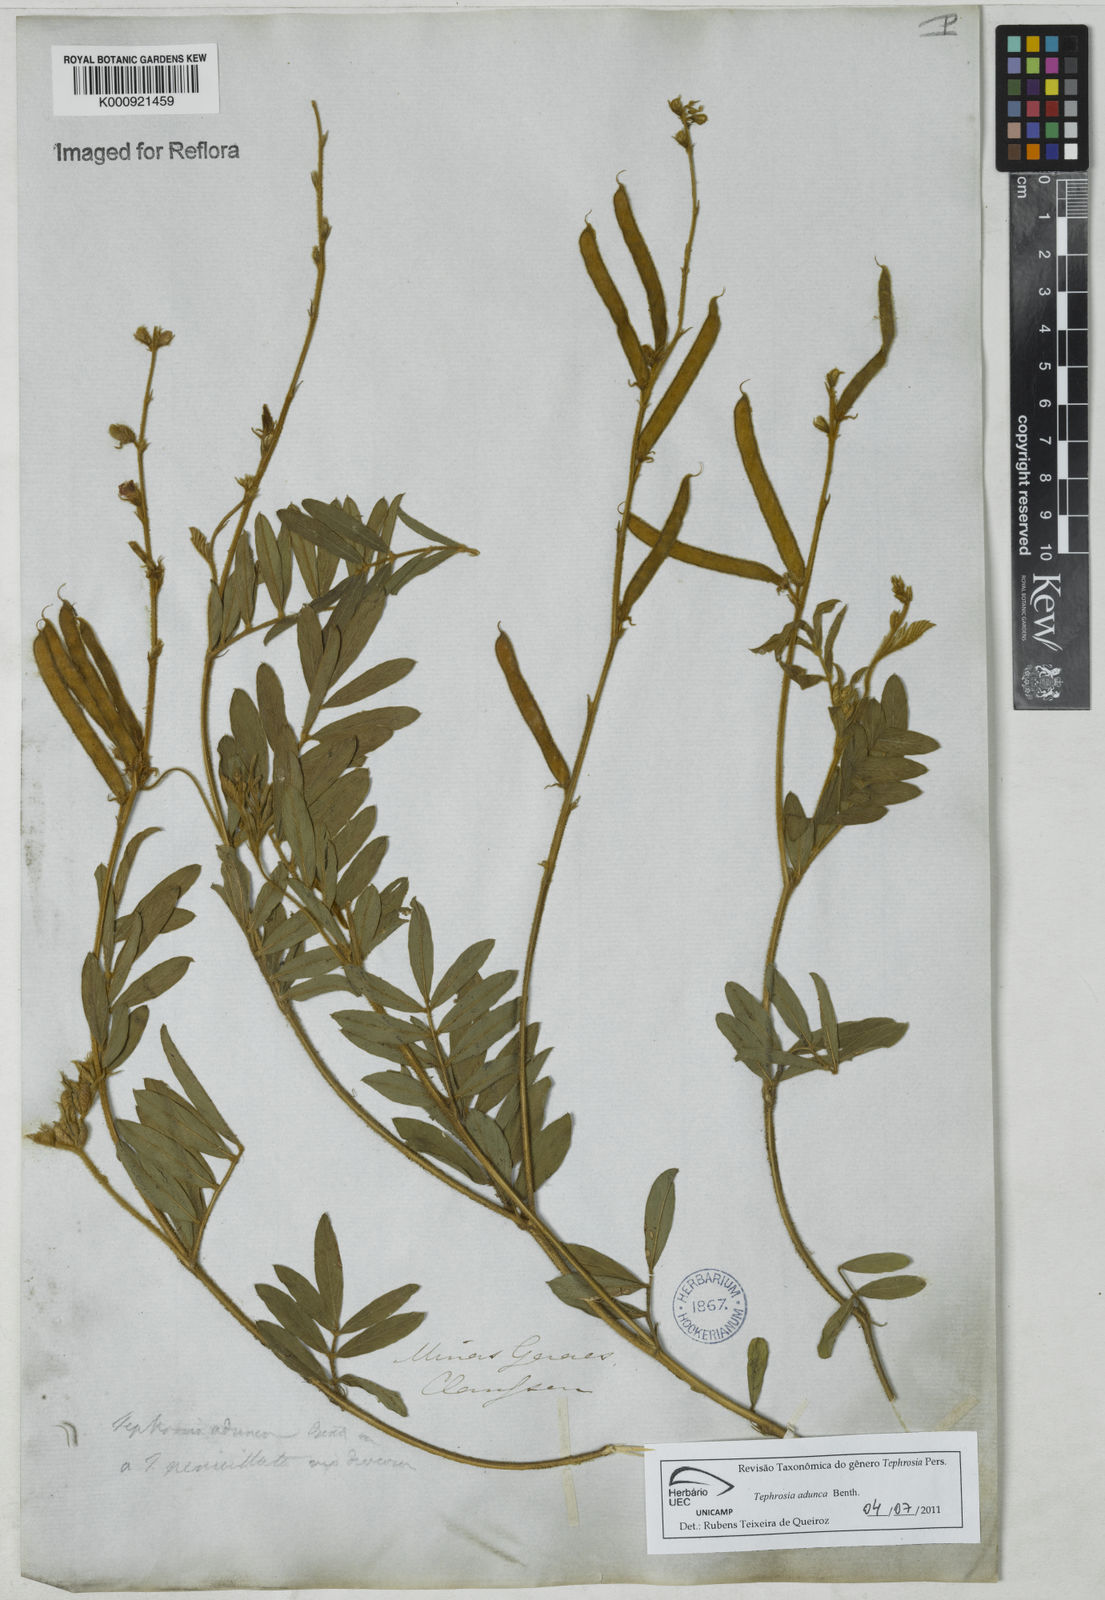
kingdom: Plantae
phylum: Tracheophyta
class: Magnoliopsida
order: Fabales
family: Fabaceae
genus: Tephrosia
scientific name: Tephrosia adunca
